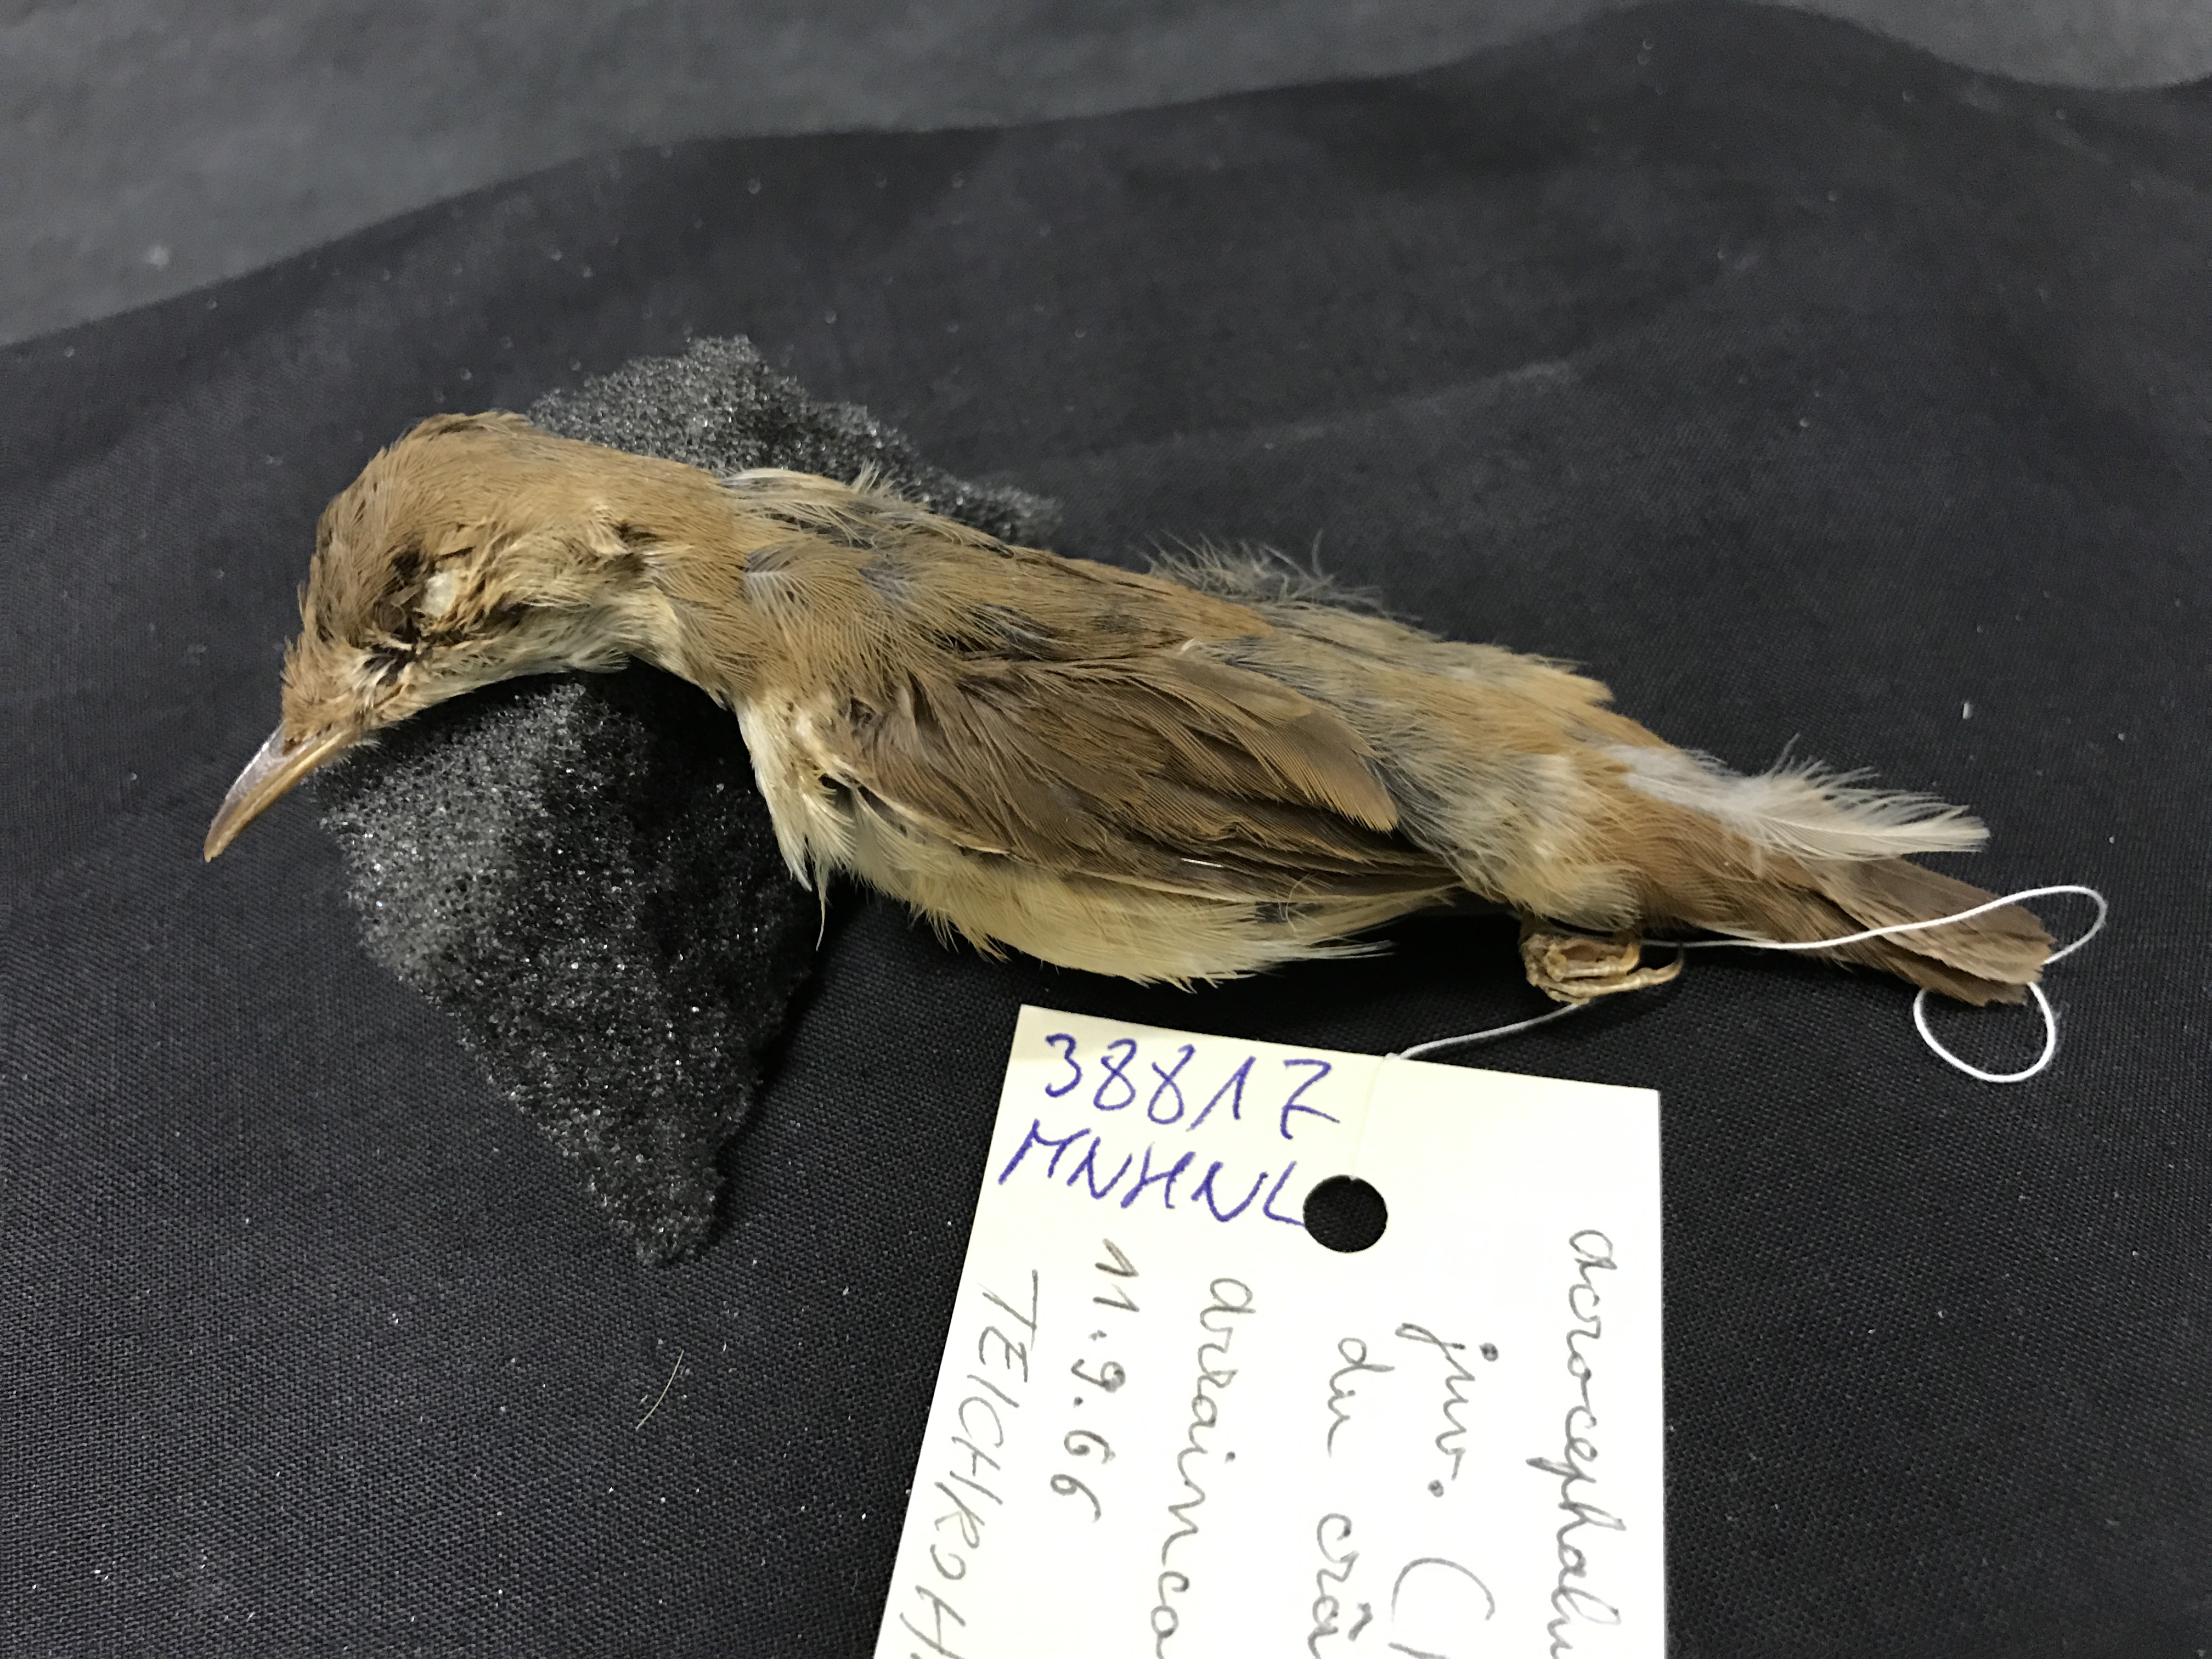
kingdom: Animalia
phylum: Chordata
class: Aves
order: Passeriformes
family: Acrocephalidae
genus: Acrocephalus
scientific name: Acrocephalus scirpaceus
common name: Eurasian reed warbler
